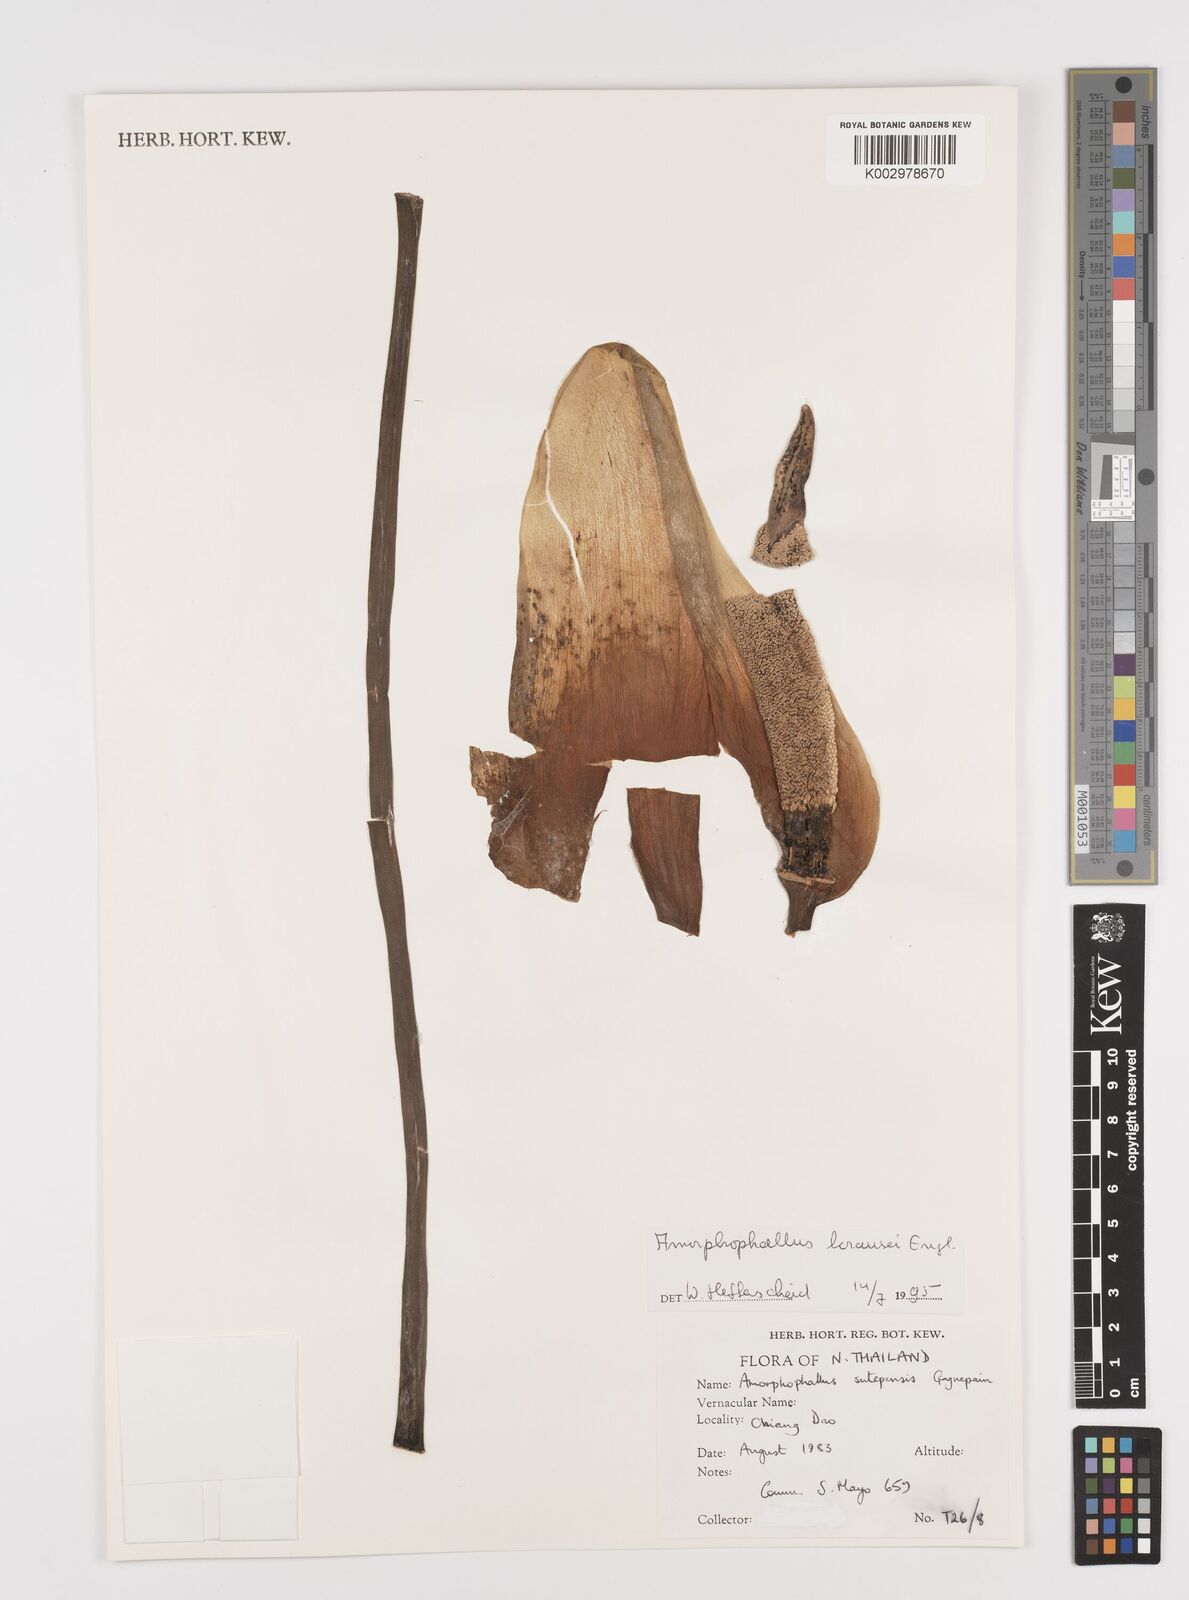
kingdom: Plantae
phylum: Tracheophyta
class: Liliopsida
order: Alismatales
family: Araceae
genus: Amorphophallus
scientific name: Amorphophallus krausei
